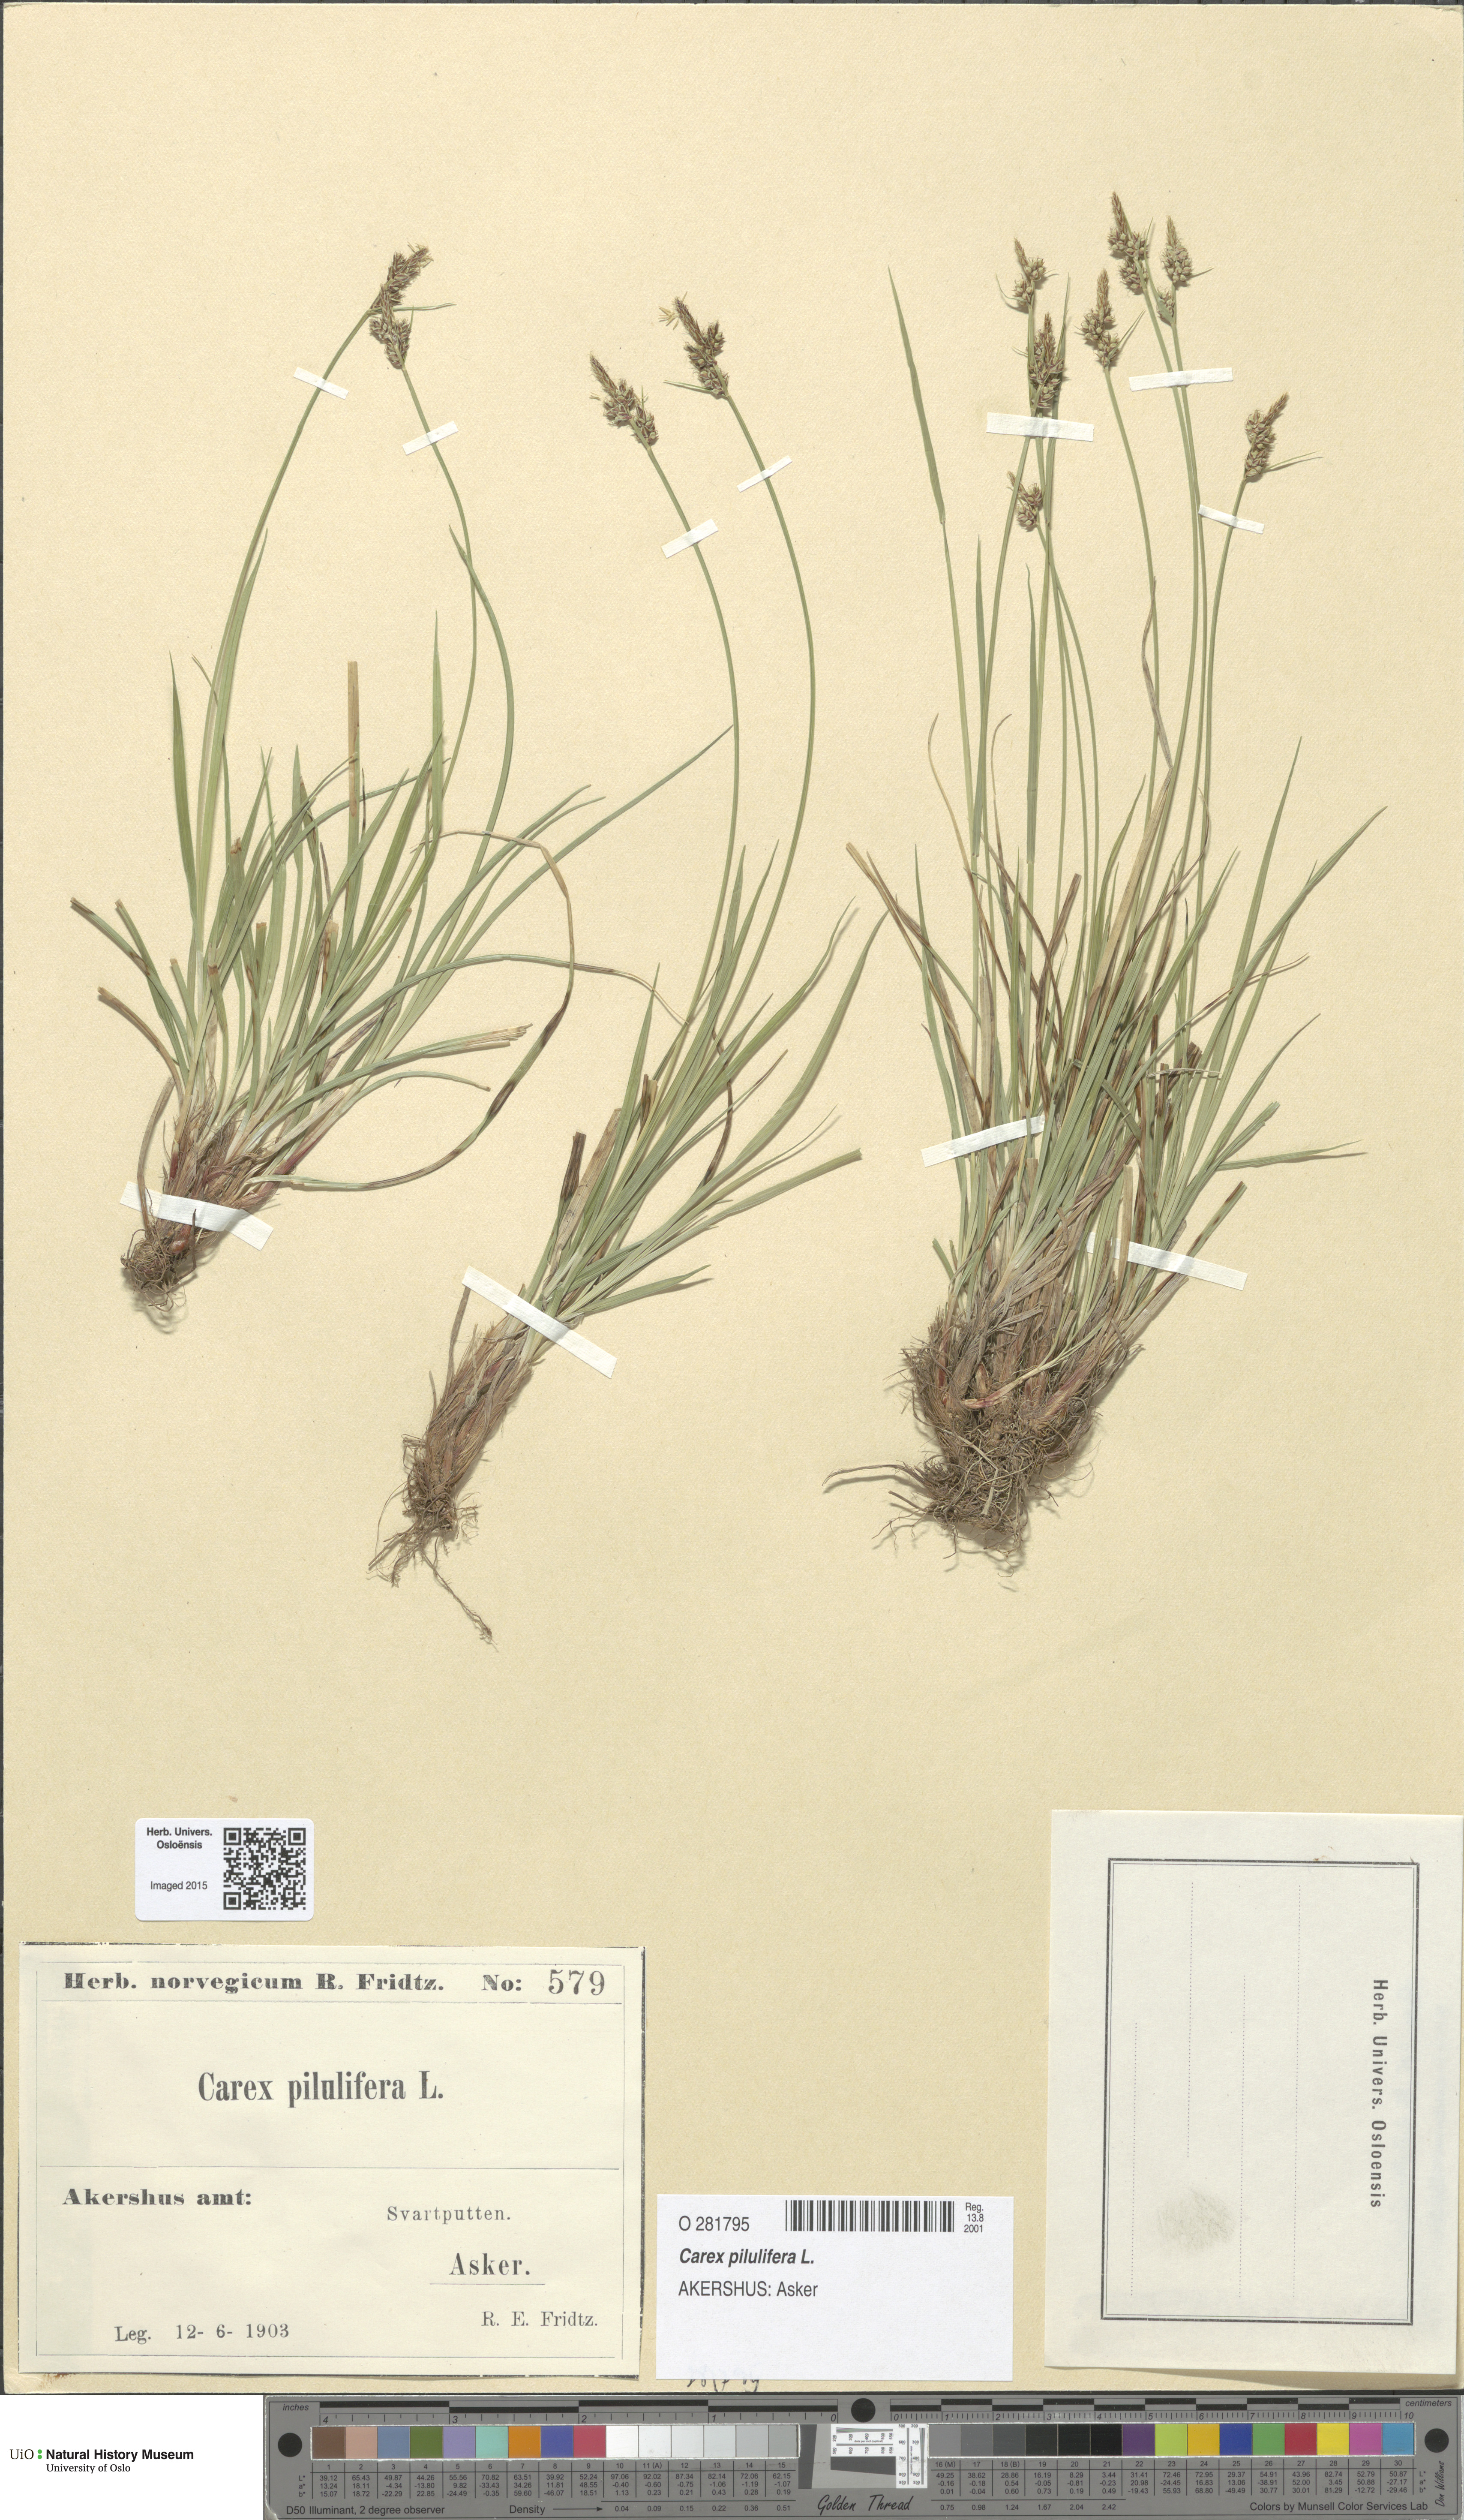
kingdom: Plantae
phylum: Tracheophyta
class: Liliopsida
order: Poales
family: Cyperaceae
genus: Carex
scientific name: Carex pilulifera
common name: Pill sedge
